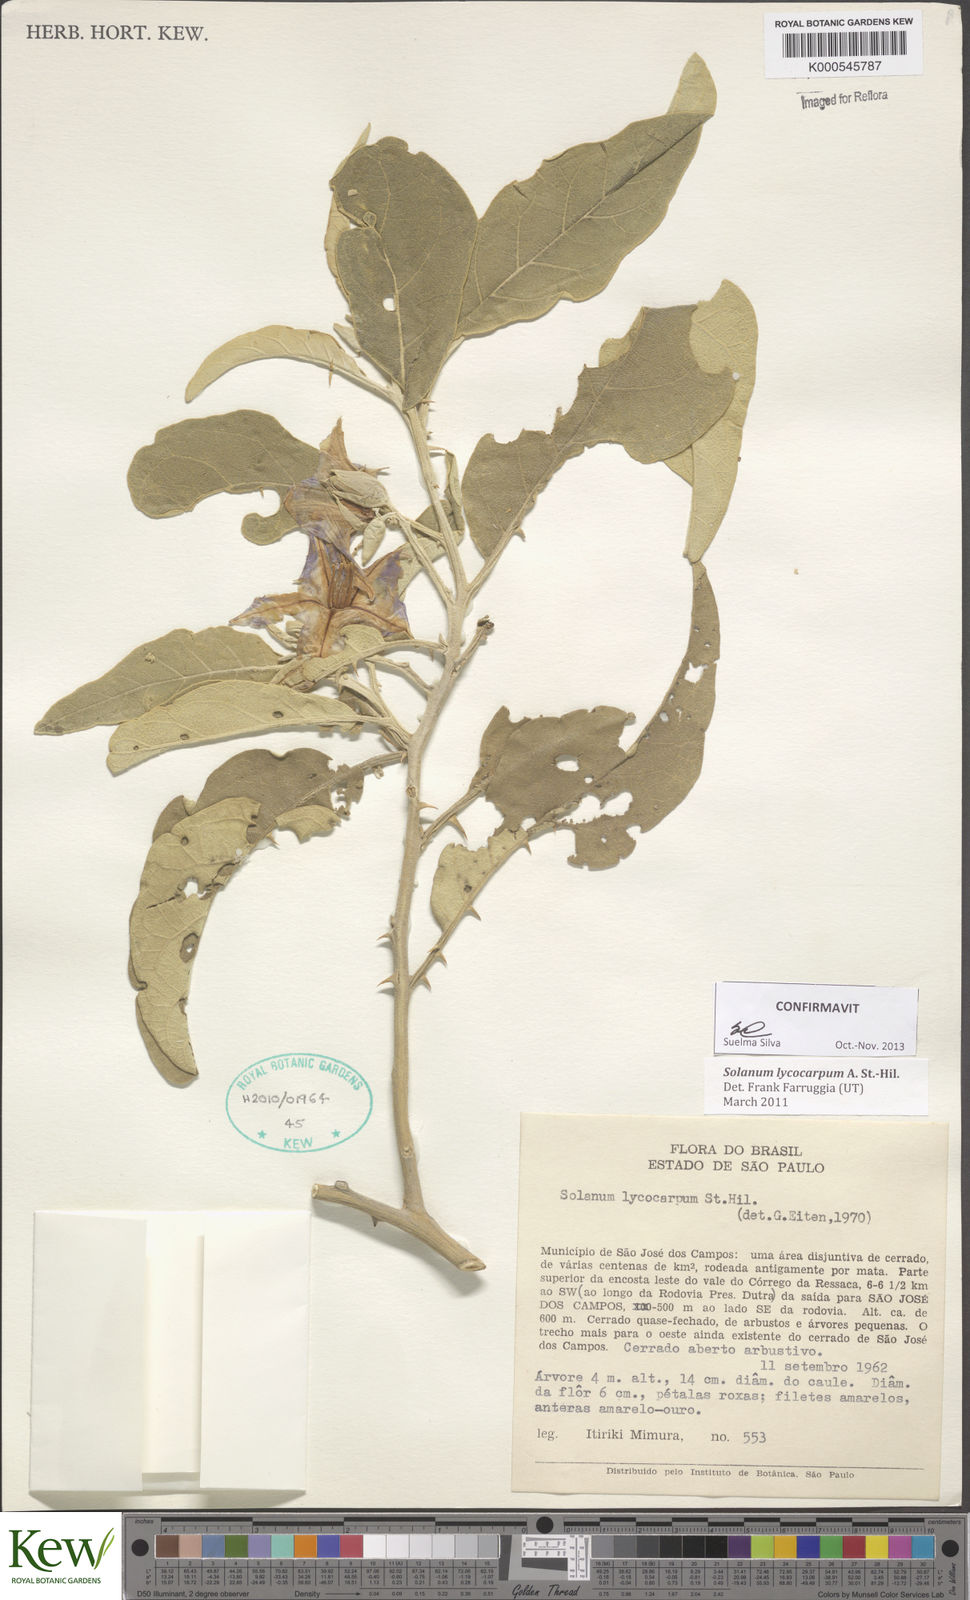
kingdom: Plantae
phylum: Tracheophyta
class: Magnoliopsida
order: Solanales
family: Solanaceae
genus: Solanum
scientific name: Solanum lycocarpum
